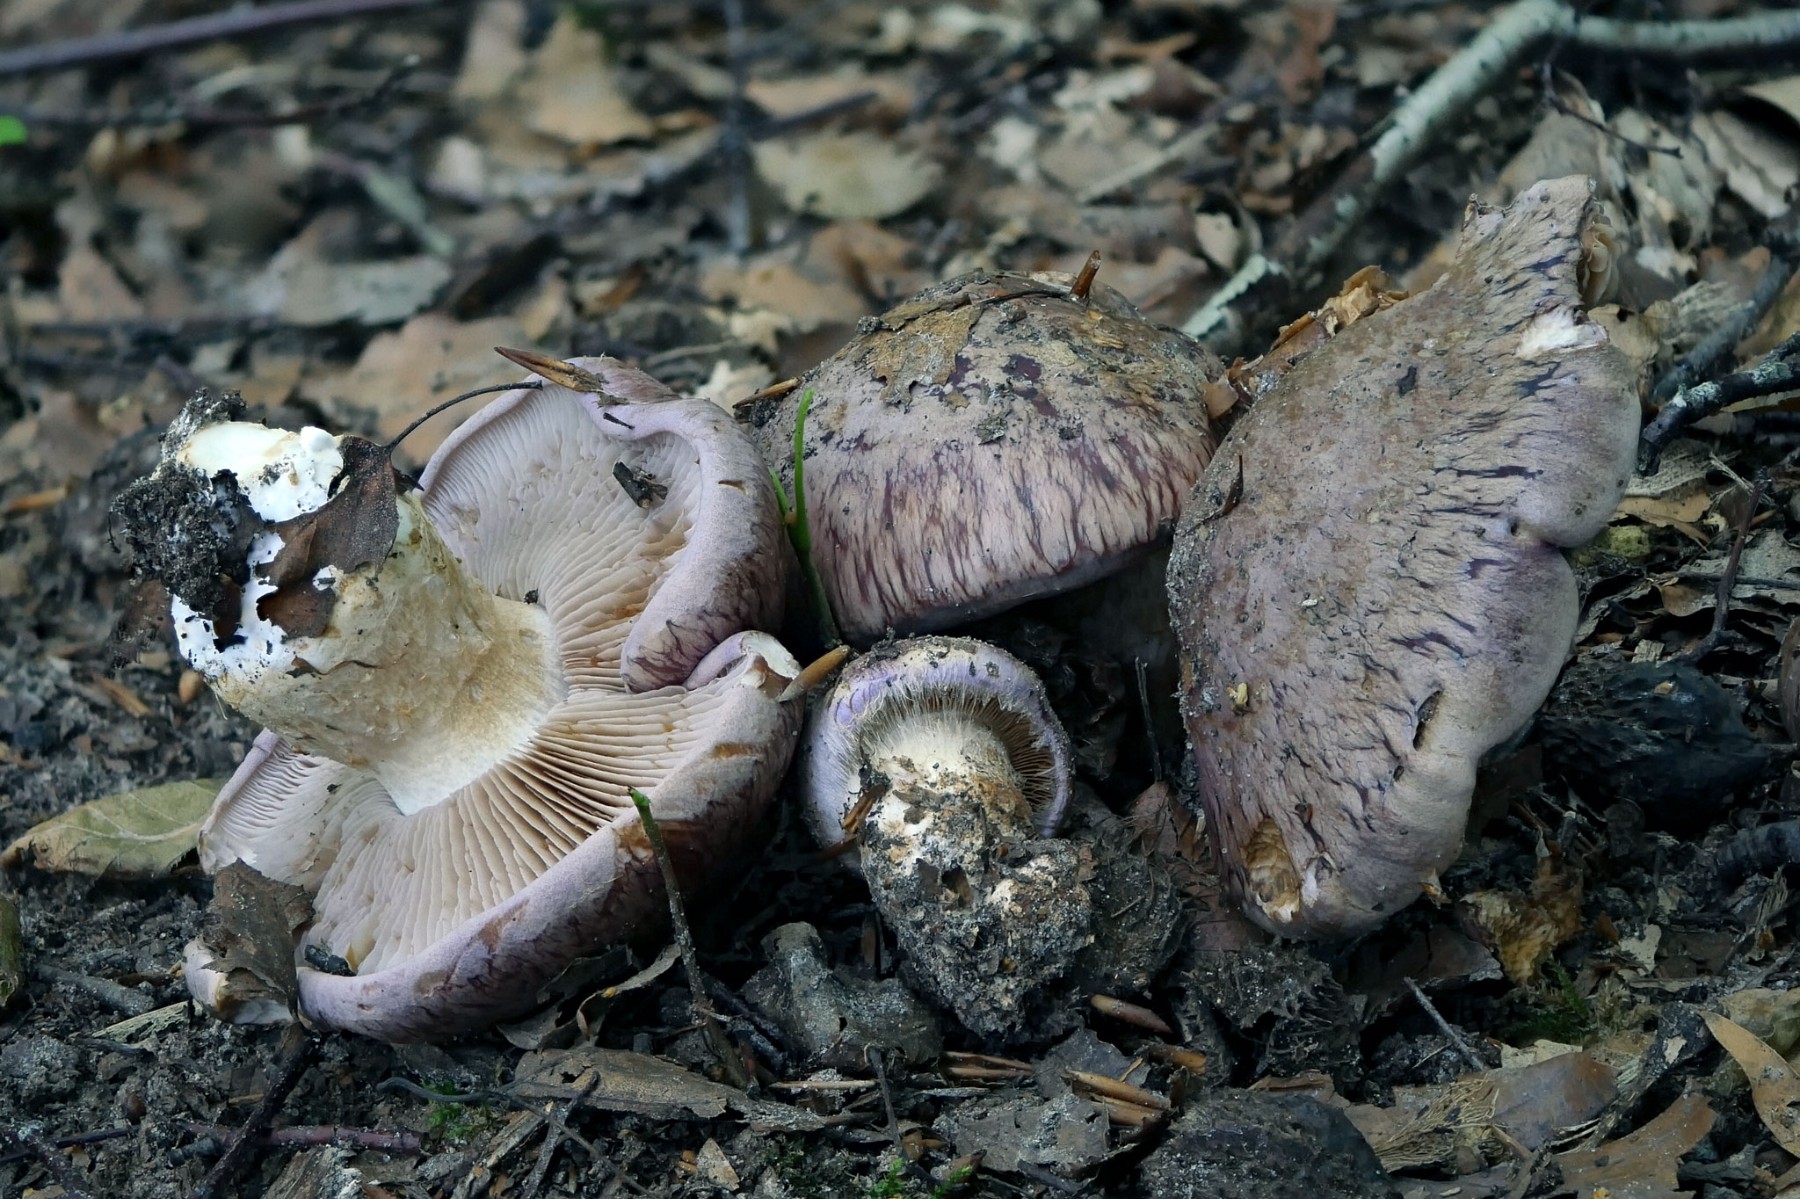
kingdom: Fungi
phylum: Basidiomycota
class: Agaricomycetes
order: Agaricales
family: Cortinariaceae
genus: Phlegmacium
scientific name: Phlegmacium balteatocumatile
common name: violettrådet slørhat
